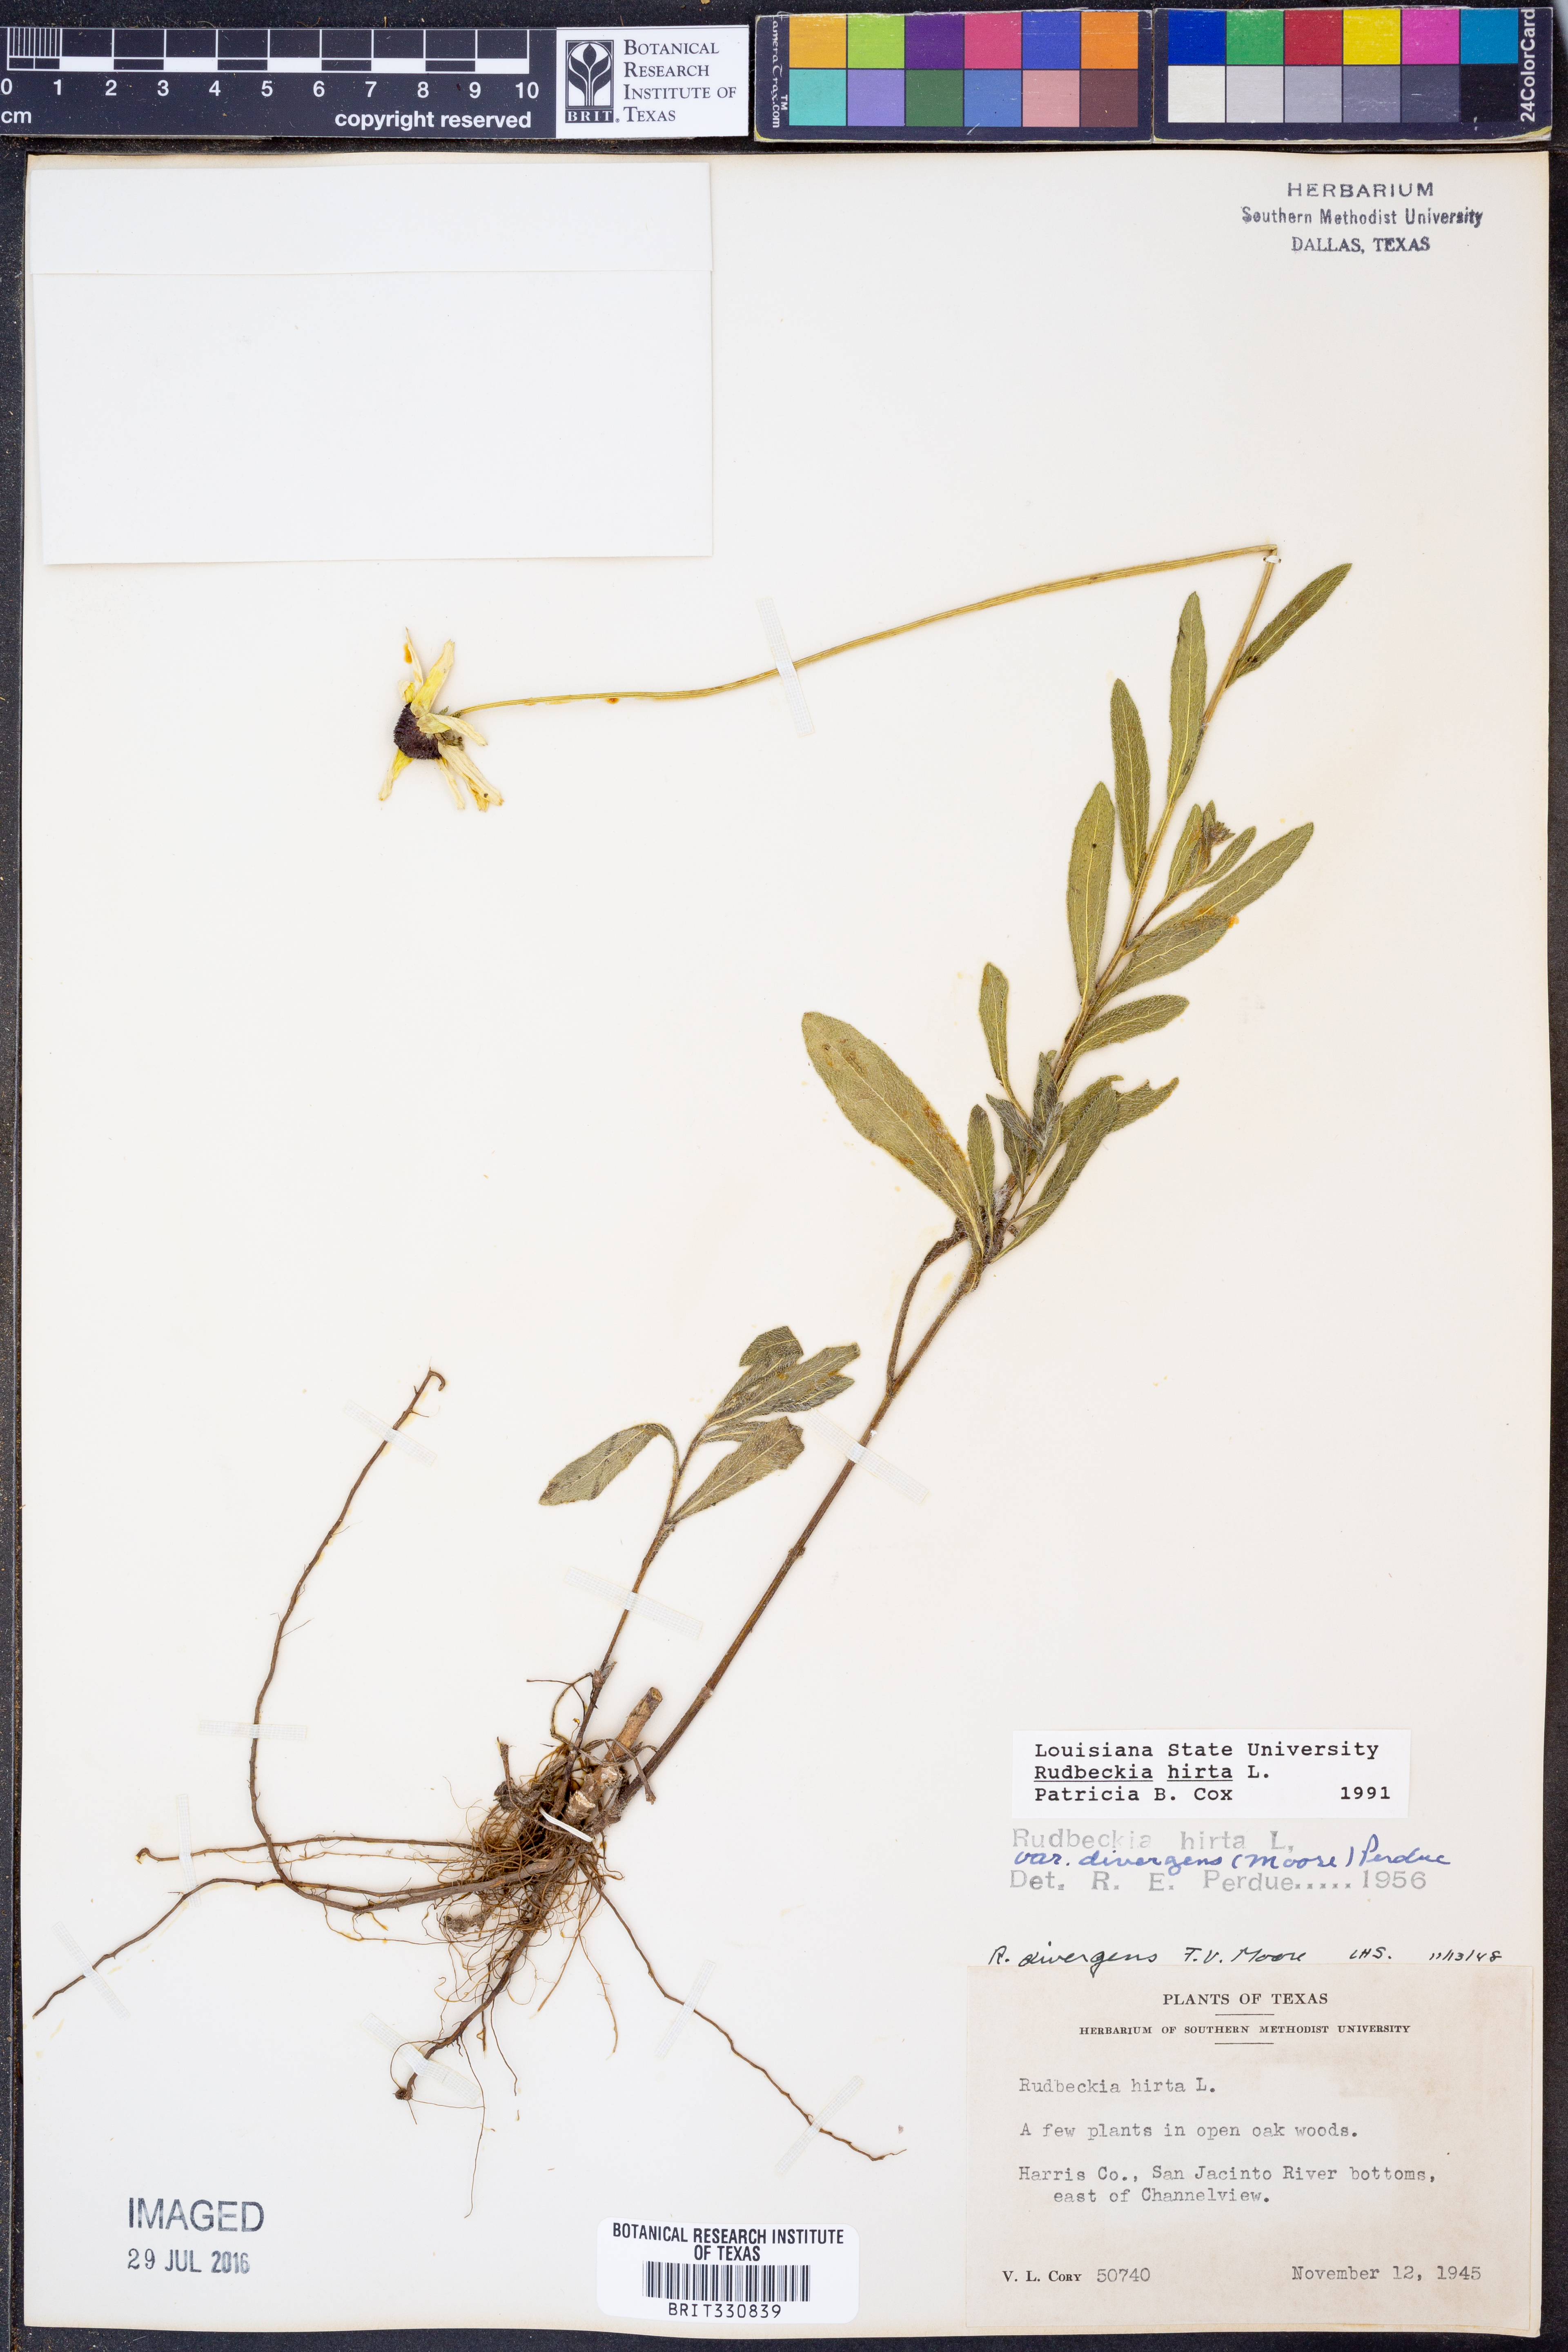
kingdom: Plantae
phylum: Tracheophyta
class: Magnoliopsida
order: Asterales
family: Asteraceae
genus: Rudbeckia
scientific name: Rudbeckia hirta
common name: Black-eyed-susan
